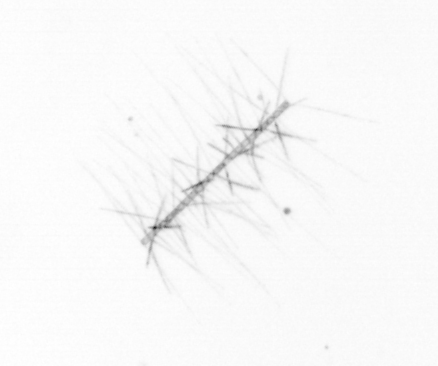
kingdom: Chromista
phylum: Ochrophyta
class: Bacillariophyceae
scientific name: Bacillariophyceae
